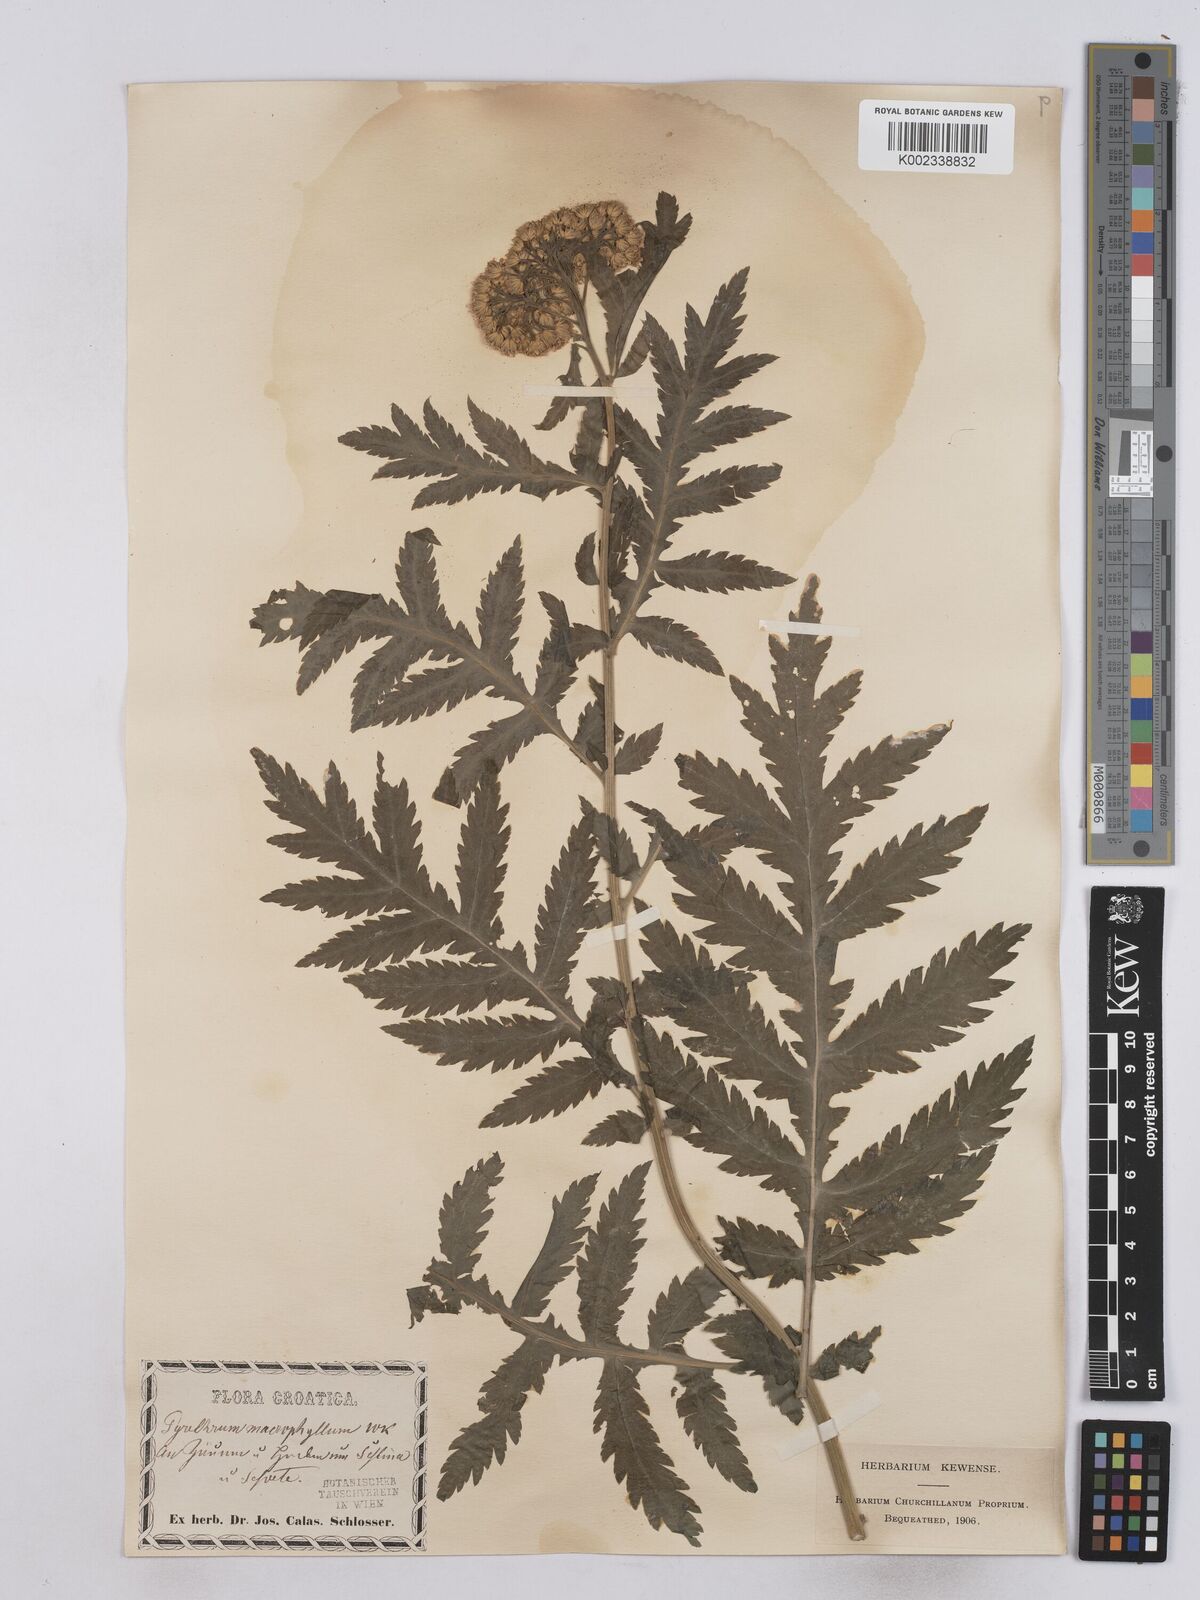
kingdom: Plantae
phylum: Tracheophyta
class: Magnoliopsida
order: Asterales
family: Asteraceae
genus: Tanacetum
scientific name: Tanacetum macrophyllum
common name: Rayed tansy
